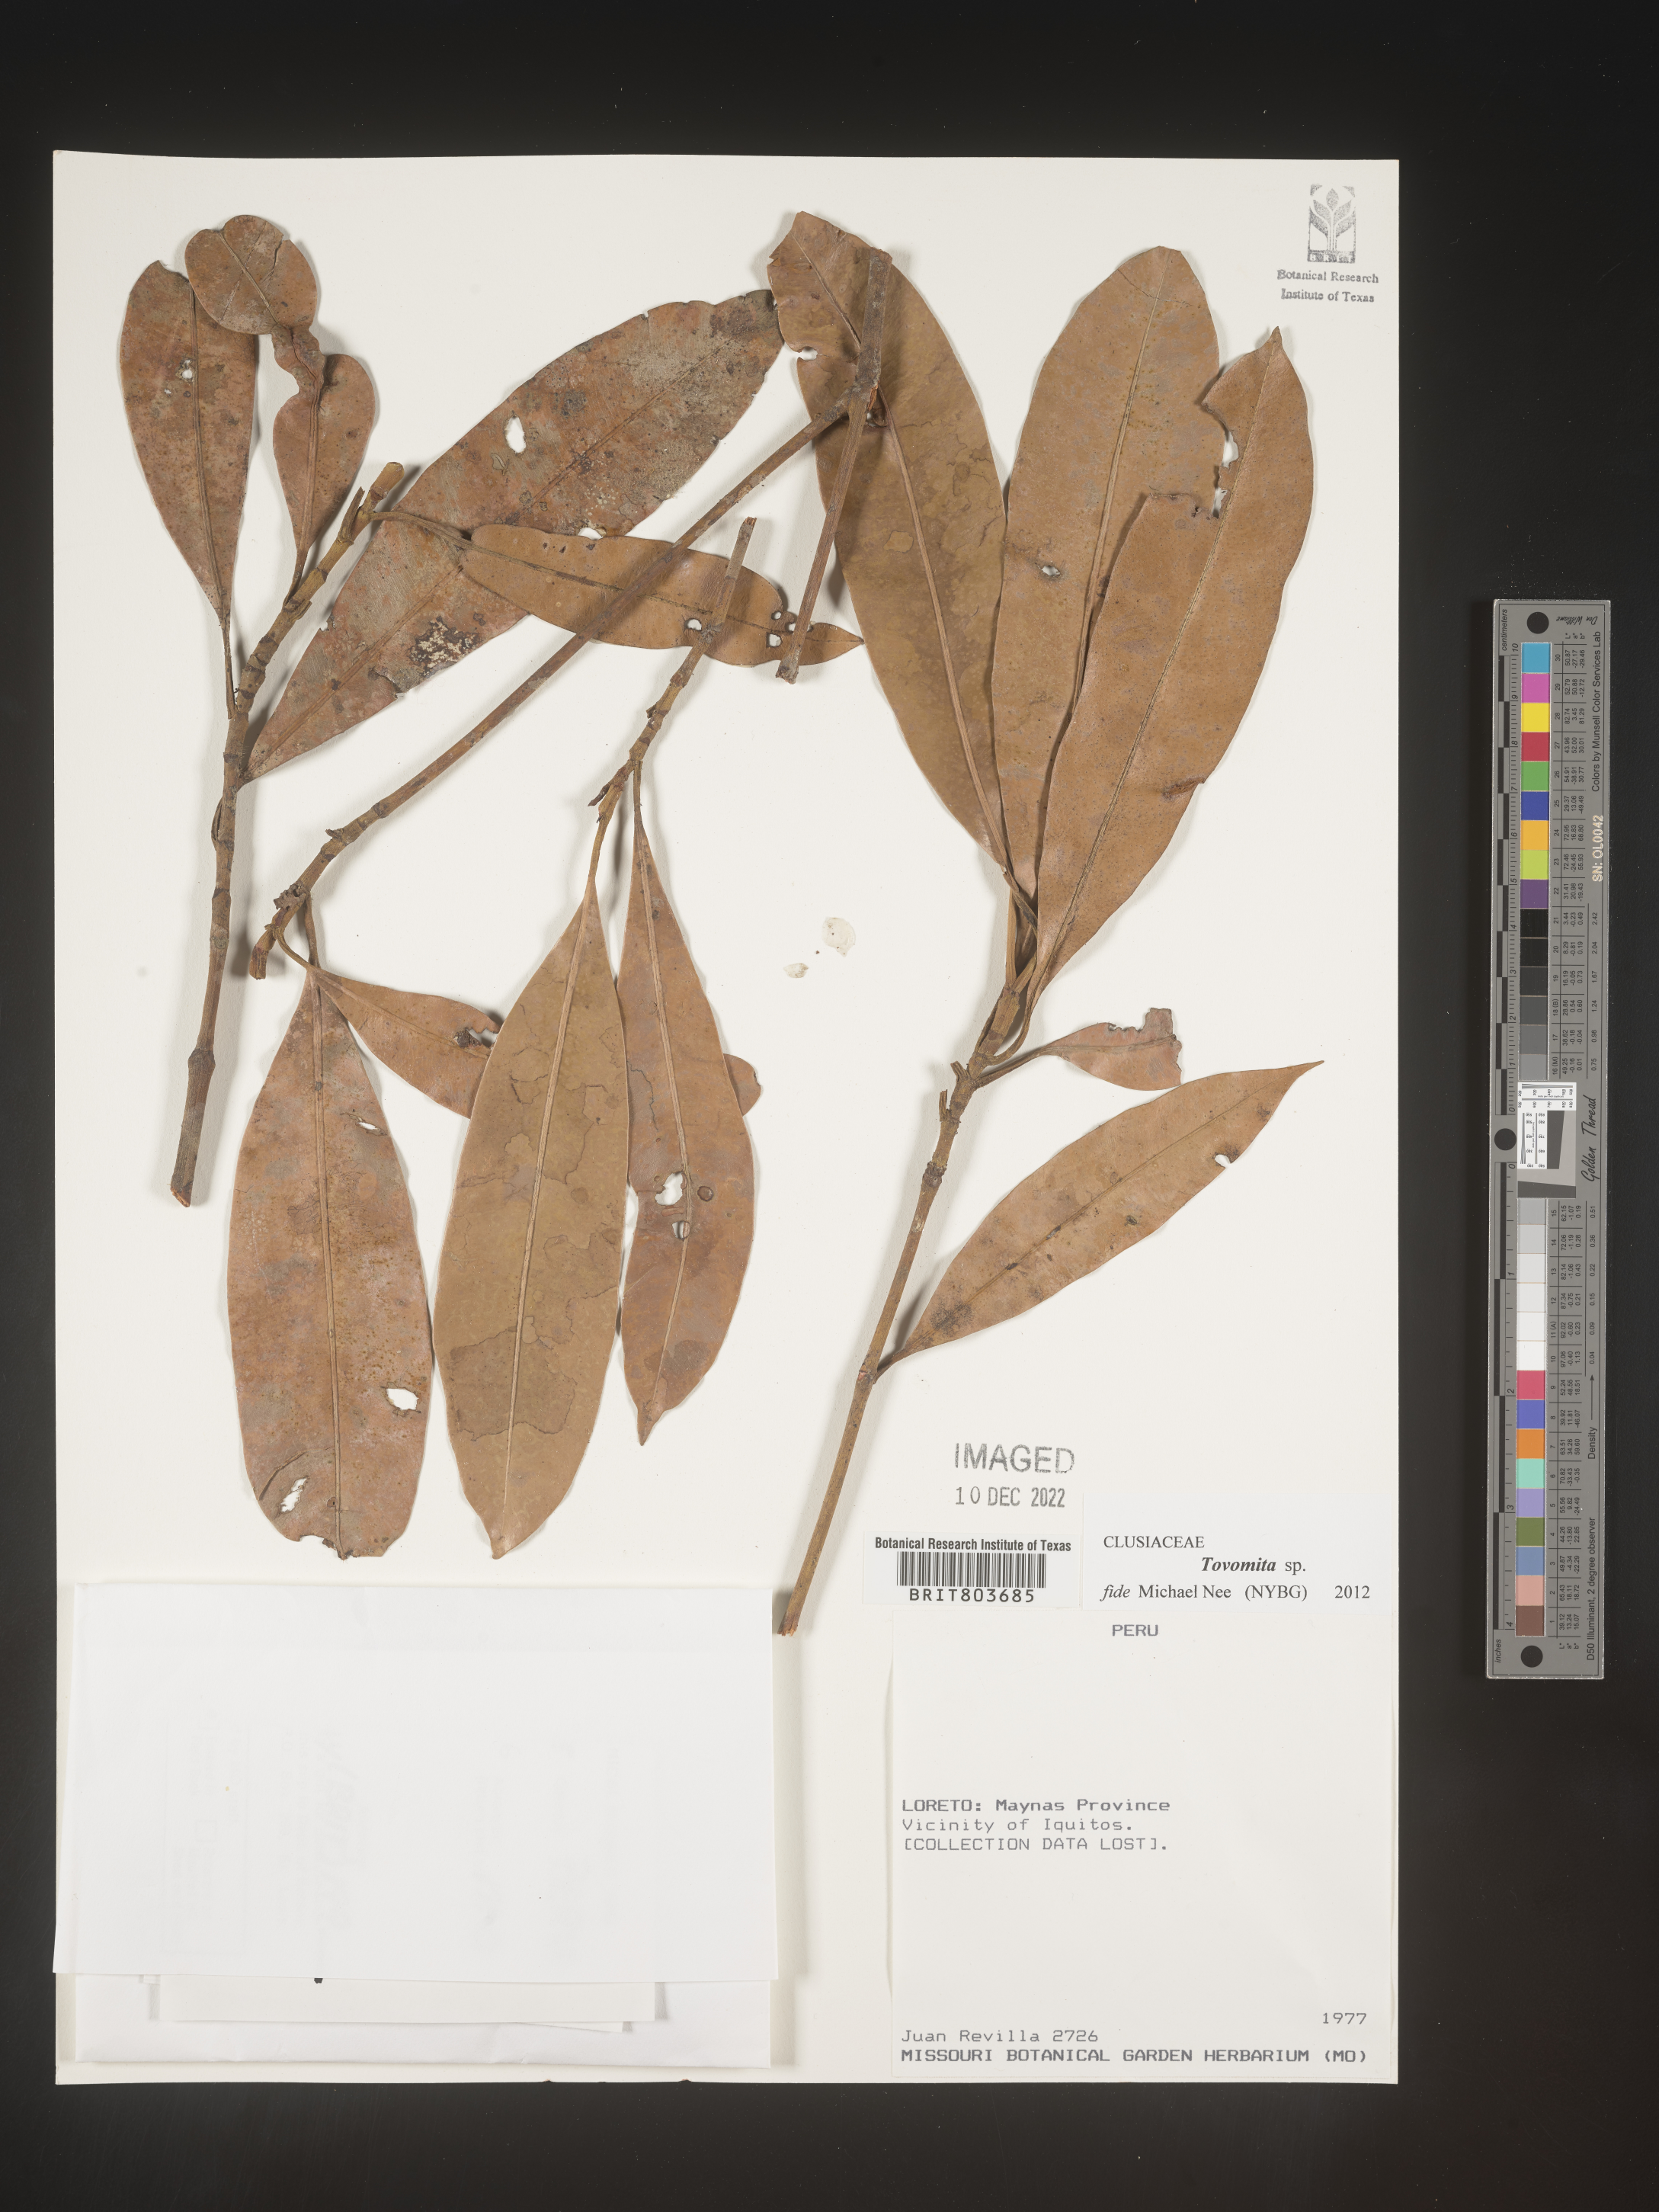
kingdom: Plantae
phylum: Tracheophyta
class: Magnoliopsida
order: Malpighiales
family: Clusiaceae
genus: Tovomita
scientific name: Tovomita
